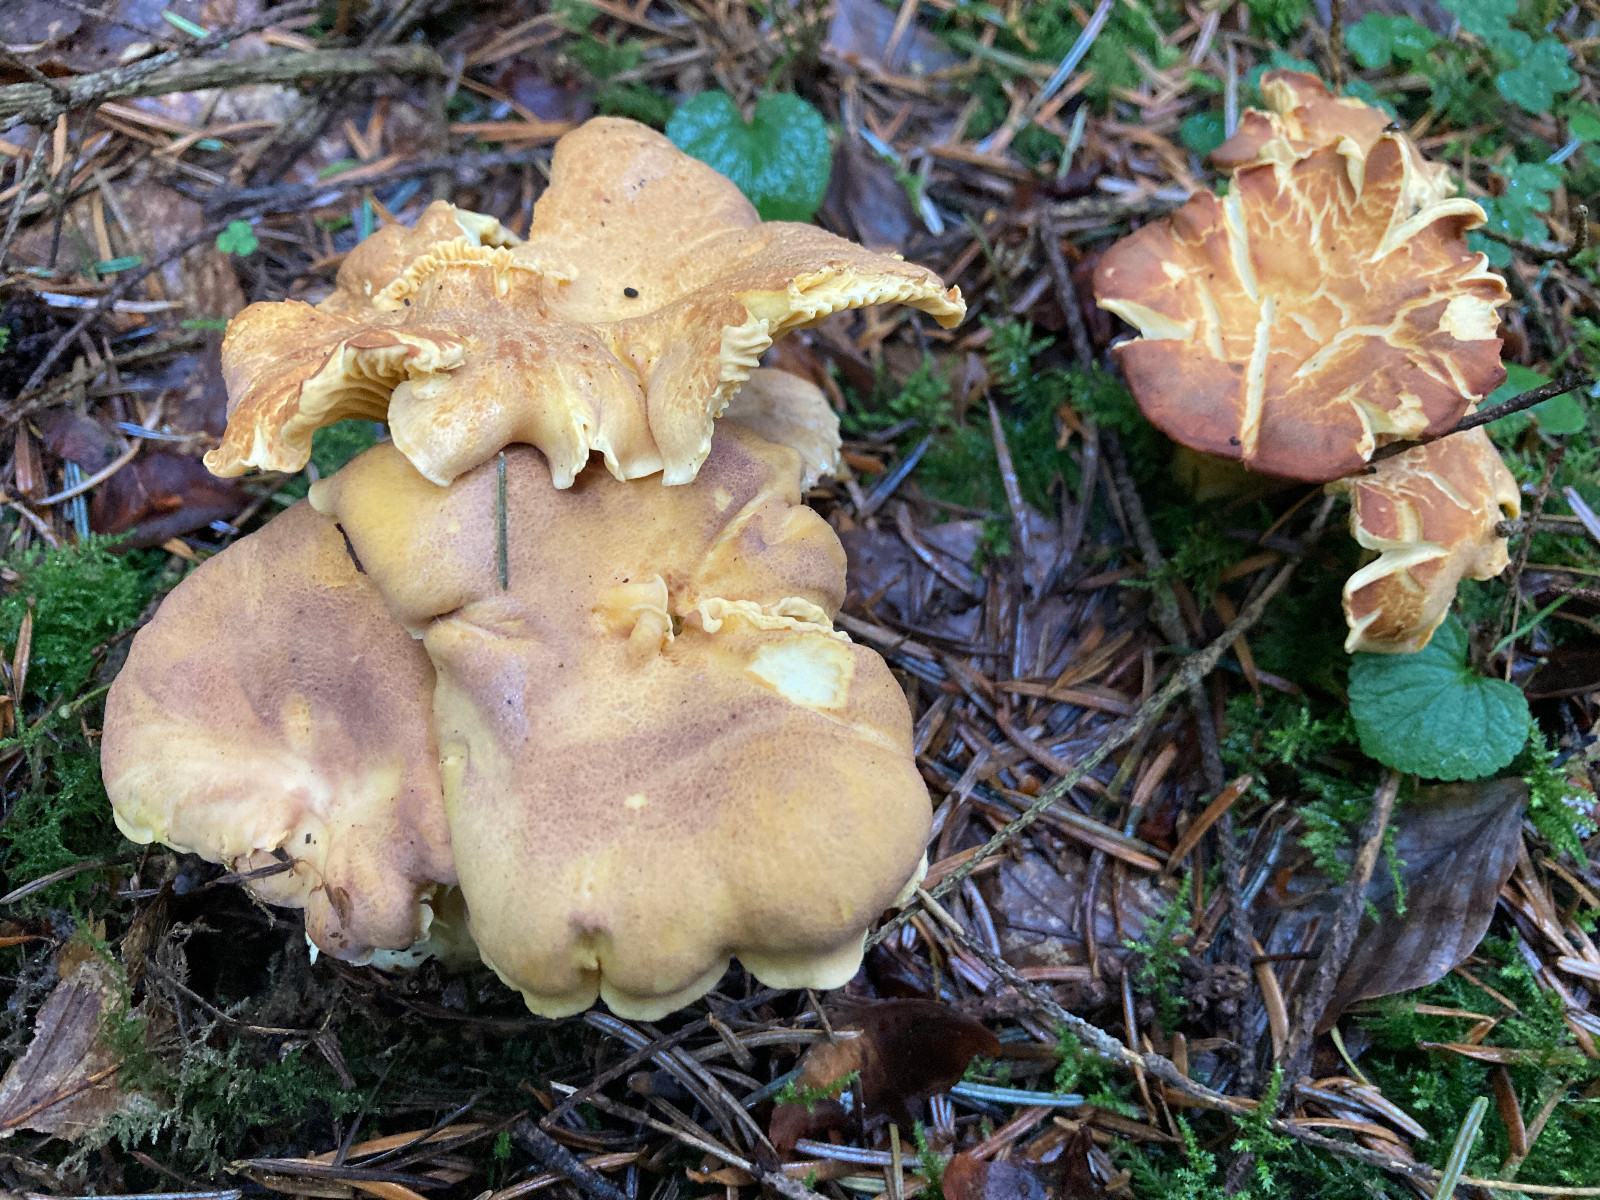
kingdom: Fungi
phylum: Basidiomycota
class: Agaricomycetes
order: Cantharellales
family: Hydnaceae
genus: Cantharellus
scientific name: Cantharellus amethysteus
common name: ametyst-kantarel
